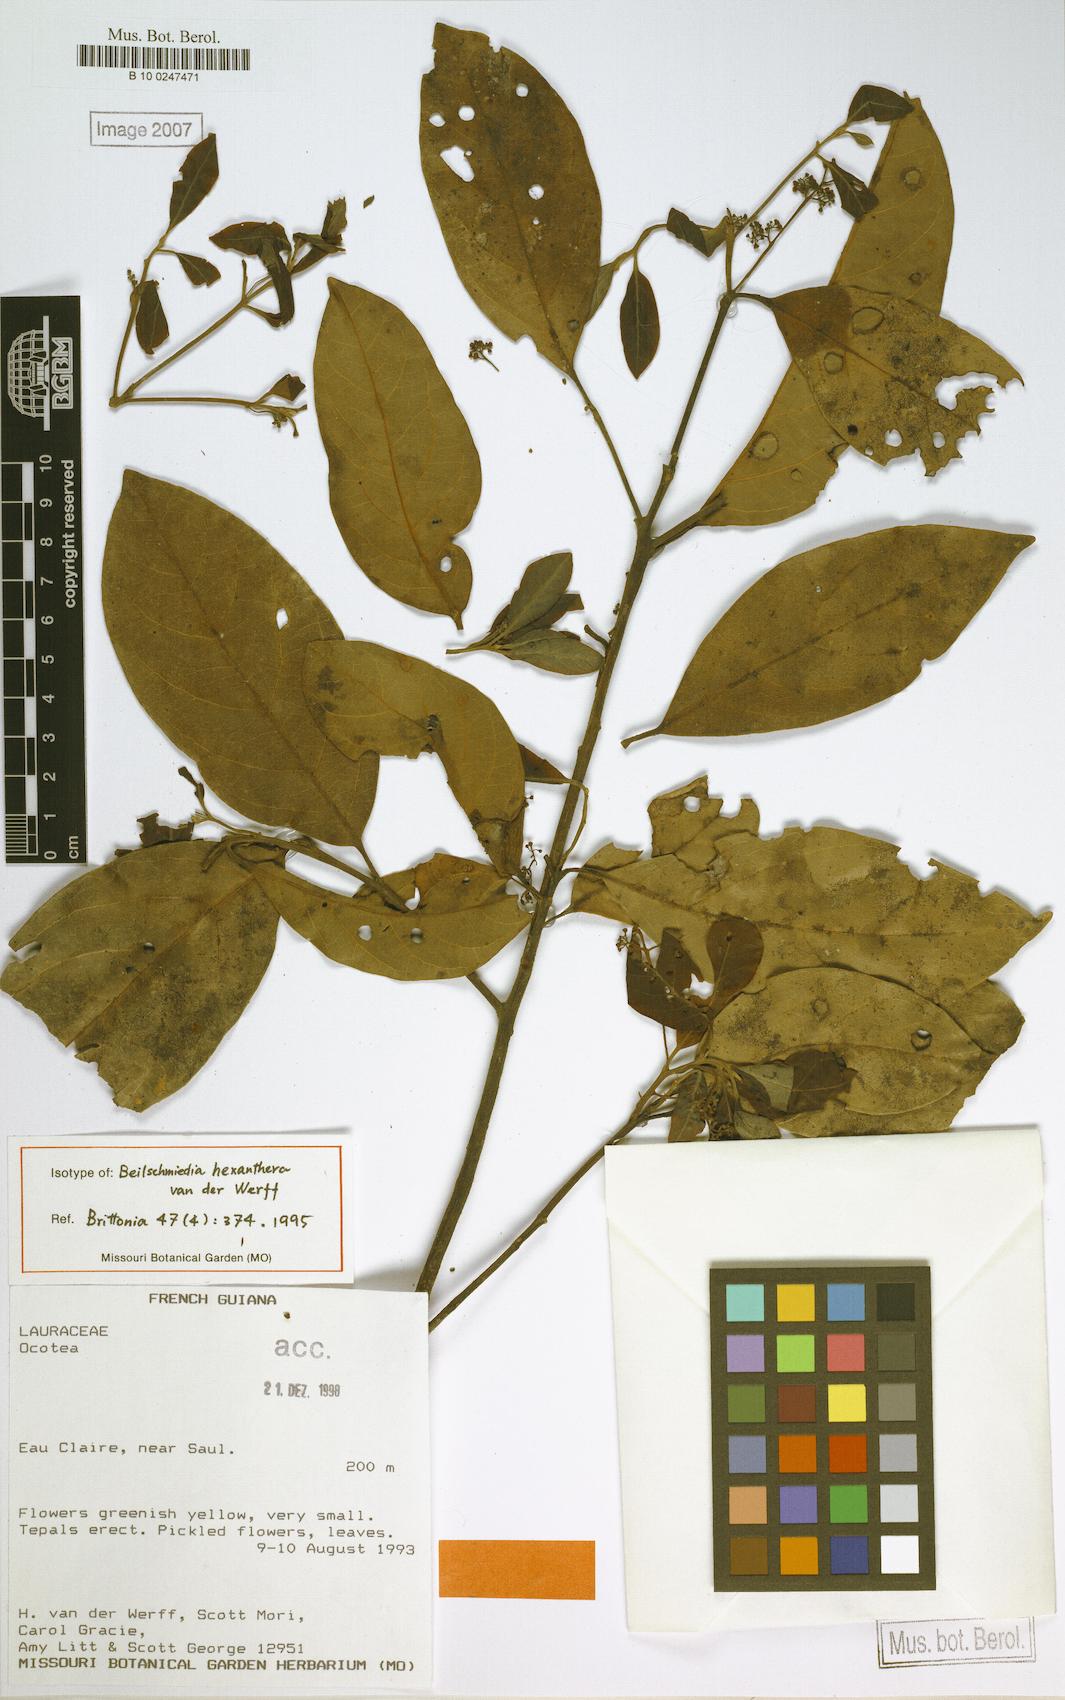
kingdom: Plantae
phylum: Tracheophyta
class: Magnoliopsida
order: Laurales
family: Lauraceae
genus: Beilschmiedia
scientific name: Beilschmiedia hexanthera
